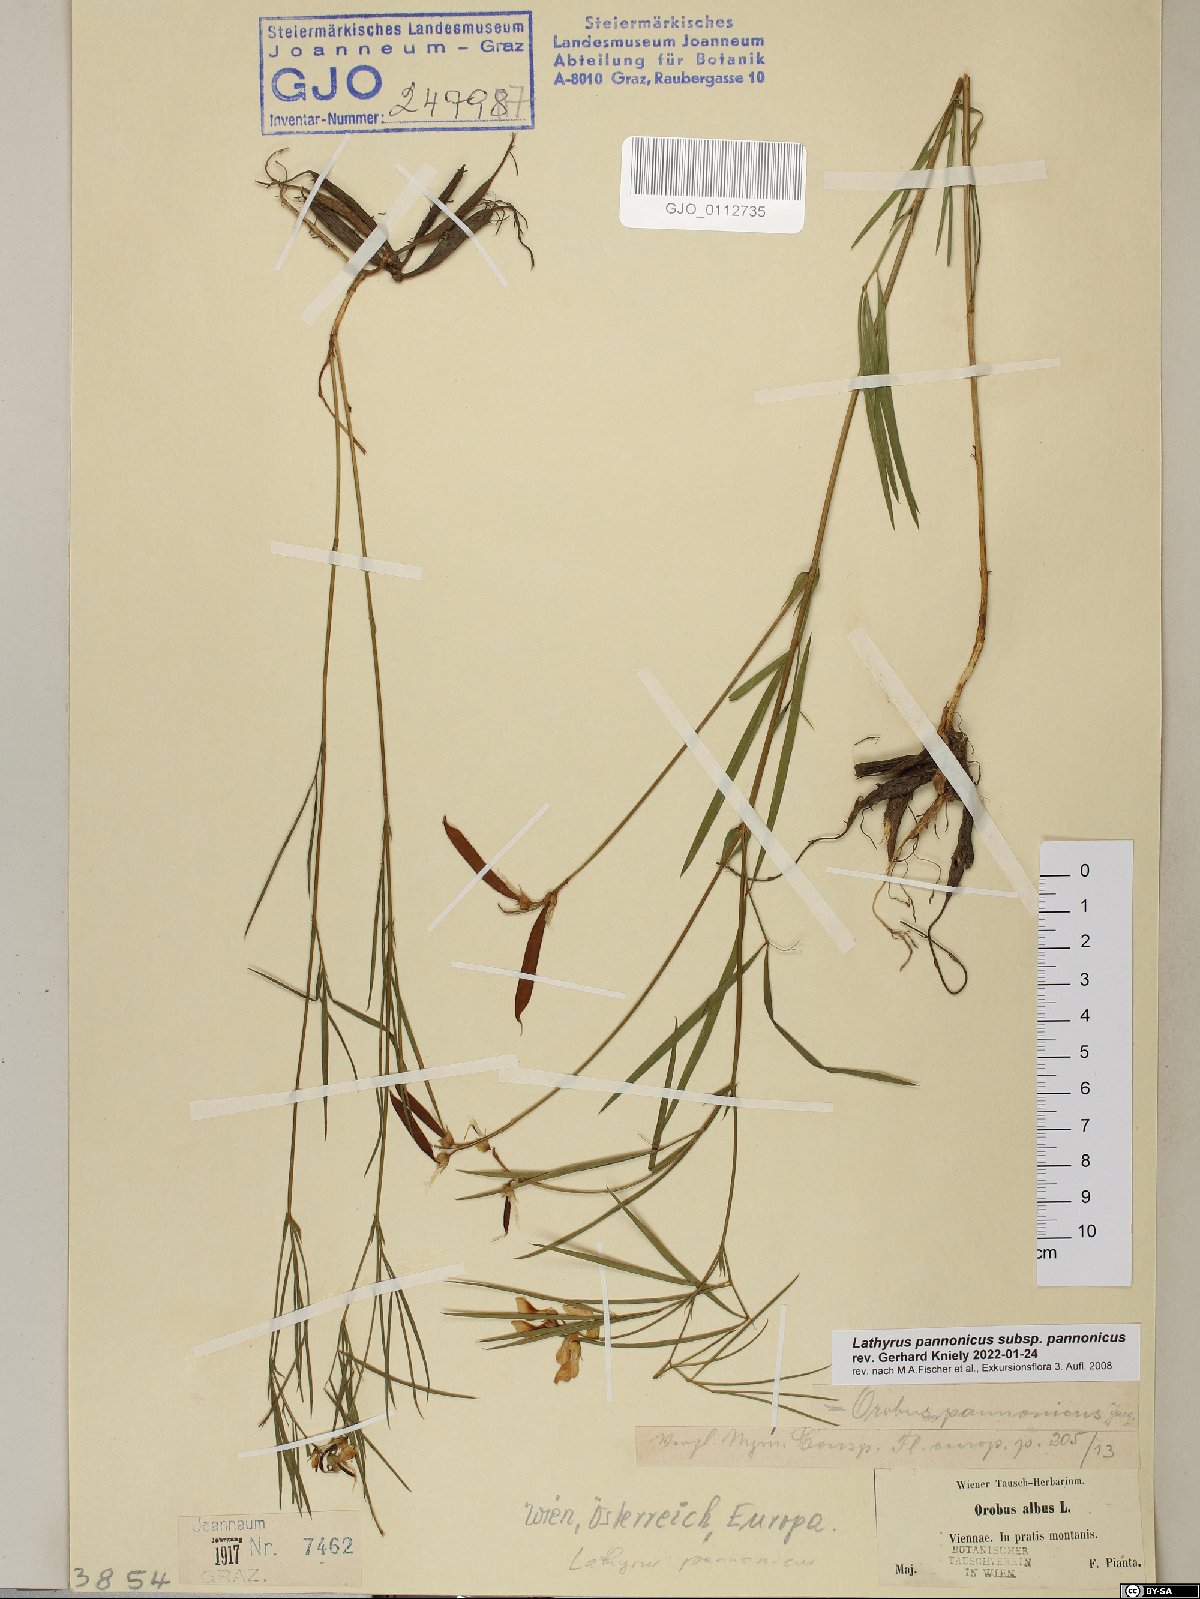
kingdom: Plantae
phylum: Tracheophyta
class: Magnoliopsida
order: Fabales
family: Fabaceae
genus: Lathyrus
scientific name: Lathyrus pannonicus
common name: Pea
